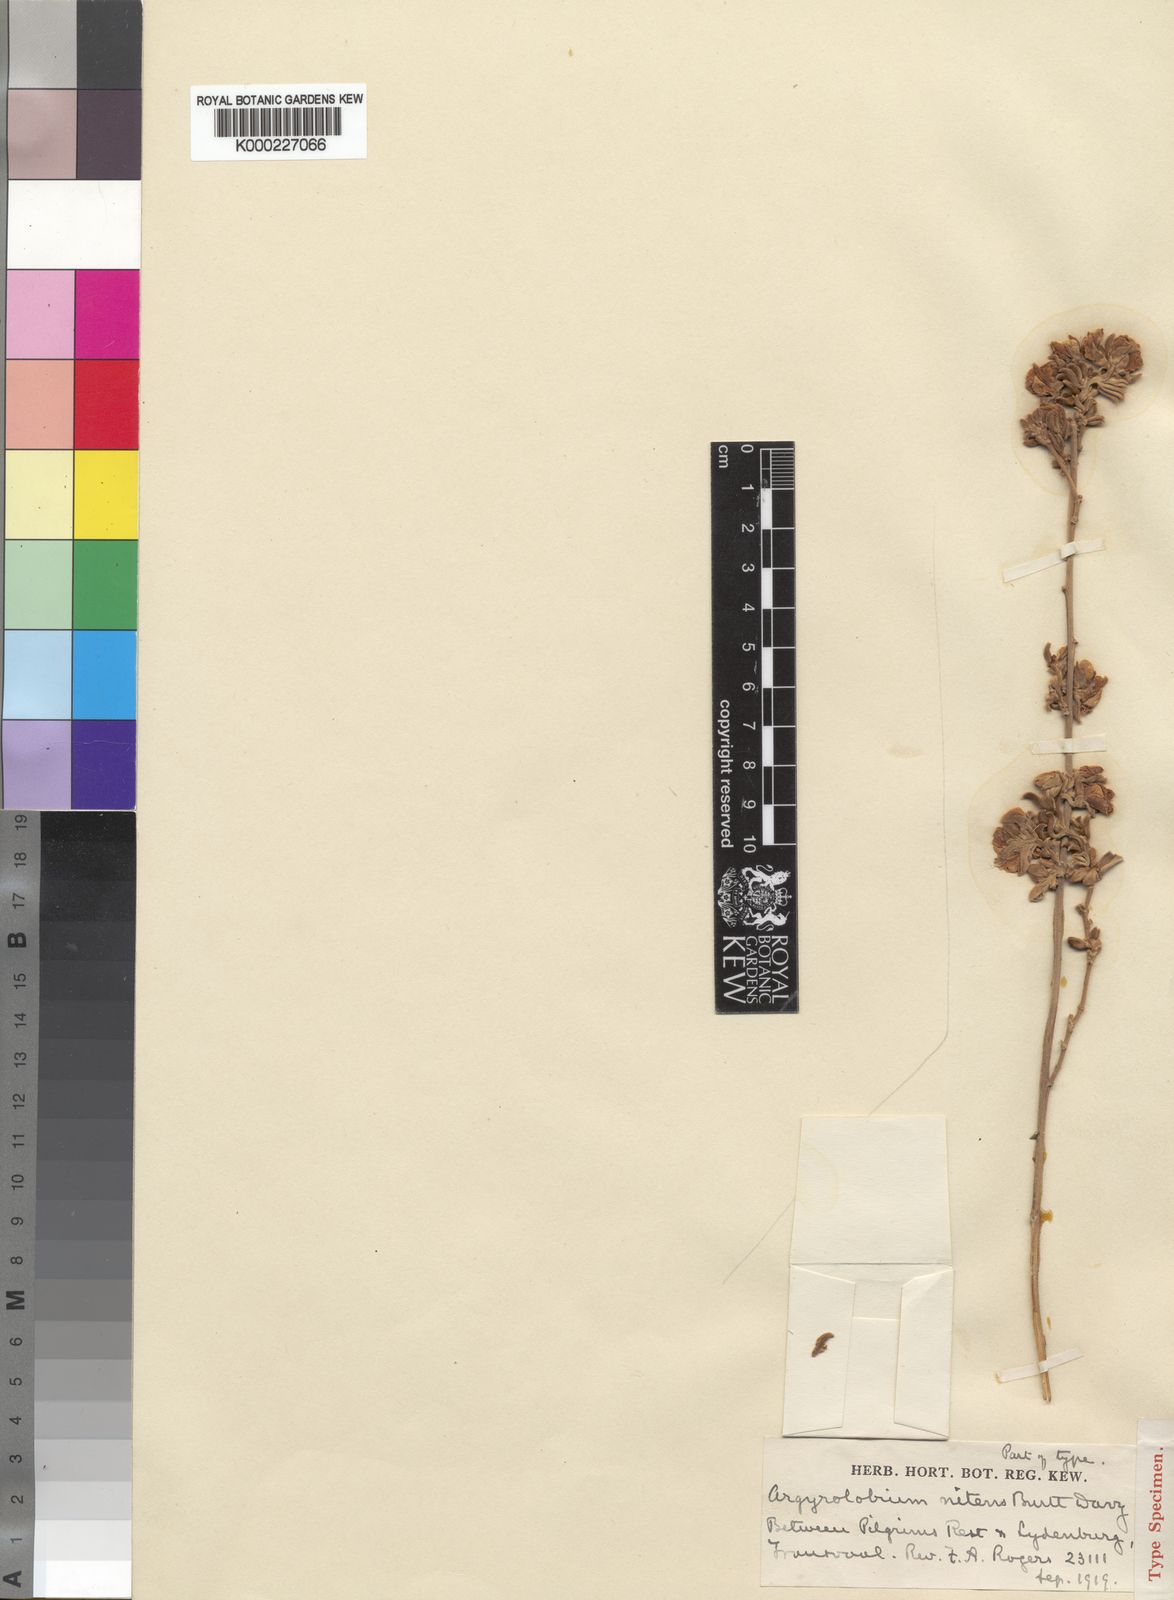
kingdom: Plantae
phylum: Tracheophyta
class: Magnoliopsida
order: Fabales
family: Fabaceae
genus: Argyrolobium
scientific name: Argyrolobium wilmsii
